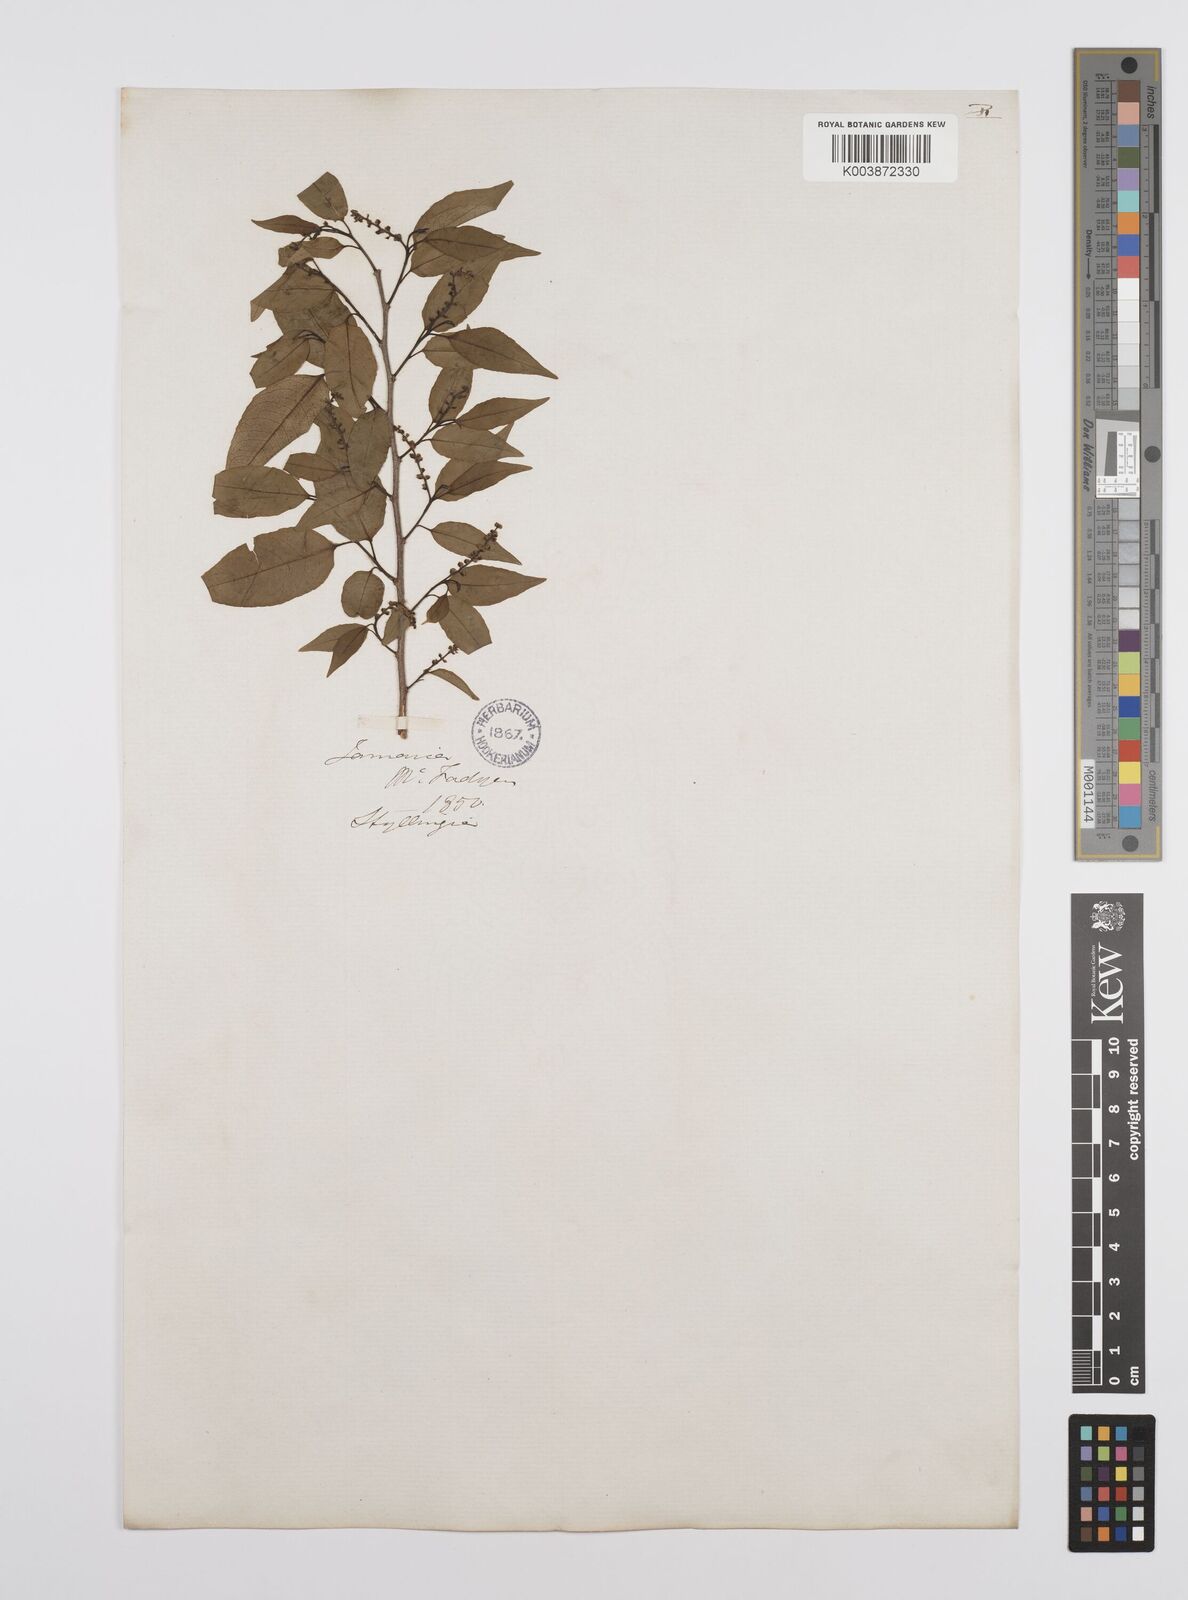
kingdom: Plantae
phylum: Tracheophyta
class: Magnoliopsida
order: Malpighiales
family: Euphorbiaceae
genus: Ditrysinia
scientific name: Ditrysinia fruticosa
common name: Gulf sebastian-bush
